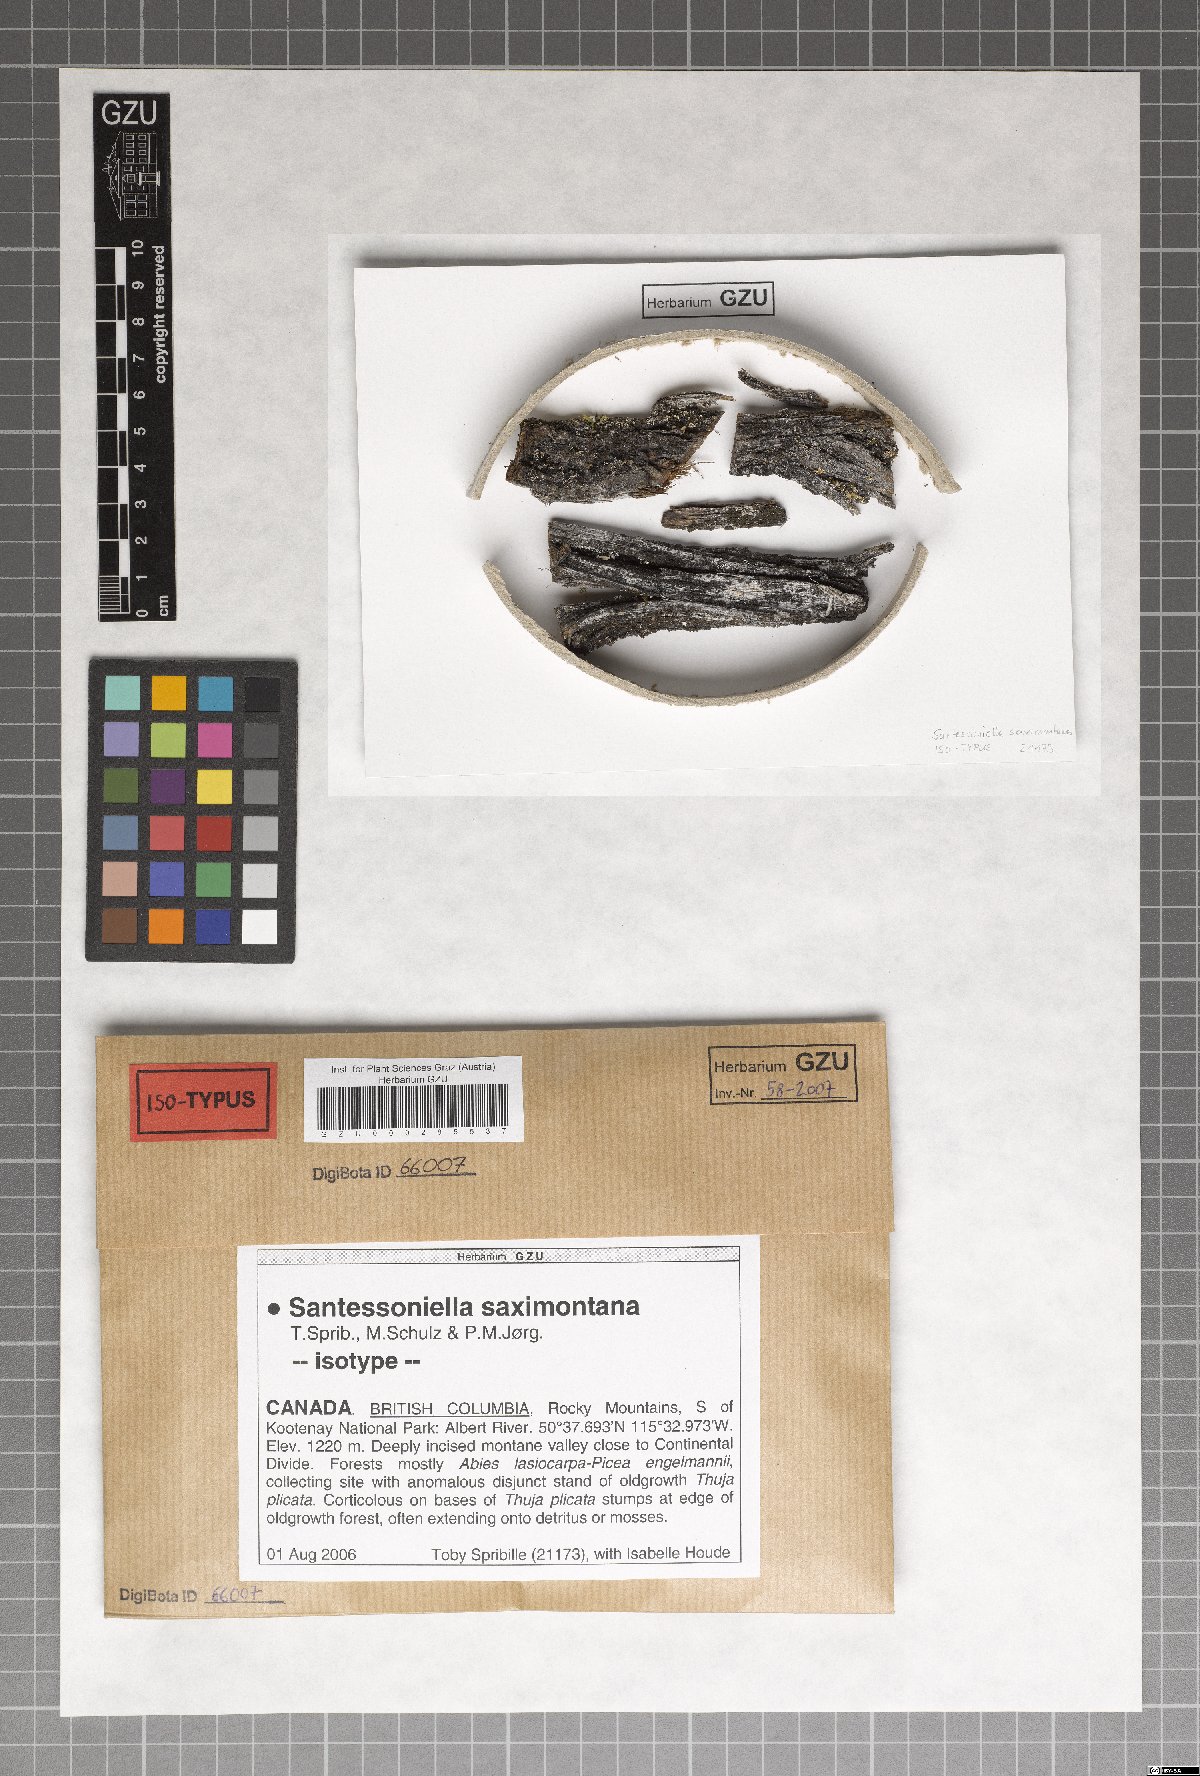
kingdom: Fungi
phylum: Ascomycota
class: Lecanoromycetes
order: Peltigerales
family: Pannariaceae
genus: Leciophysma
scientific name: Leciophysma saximontanum
